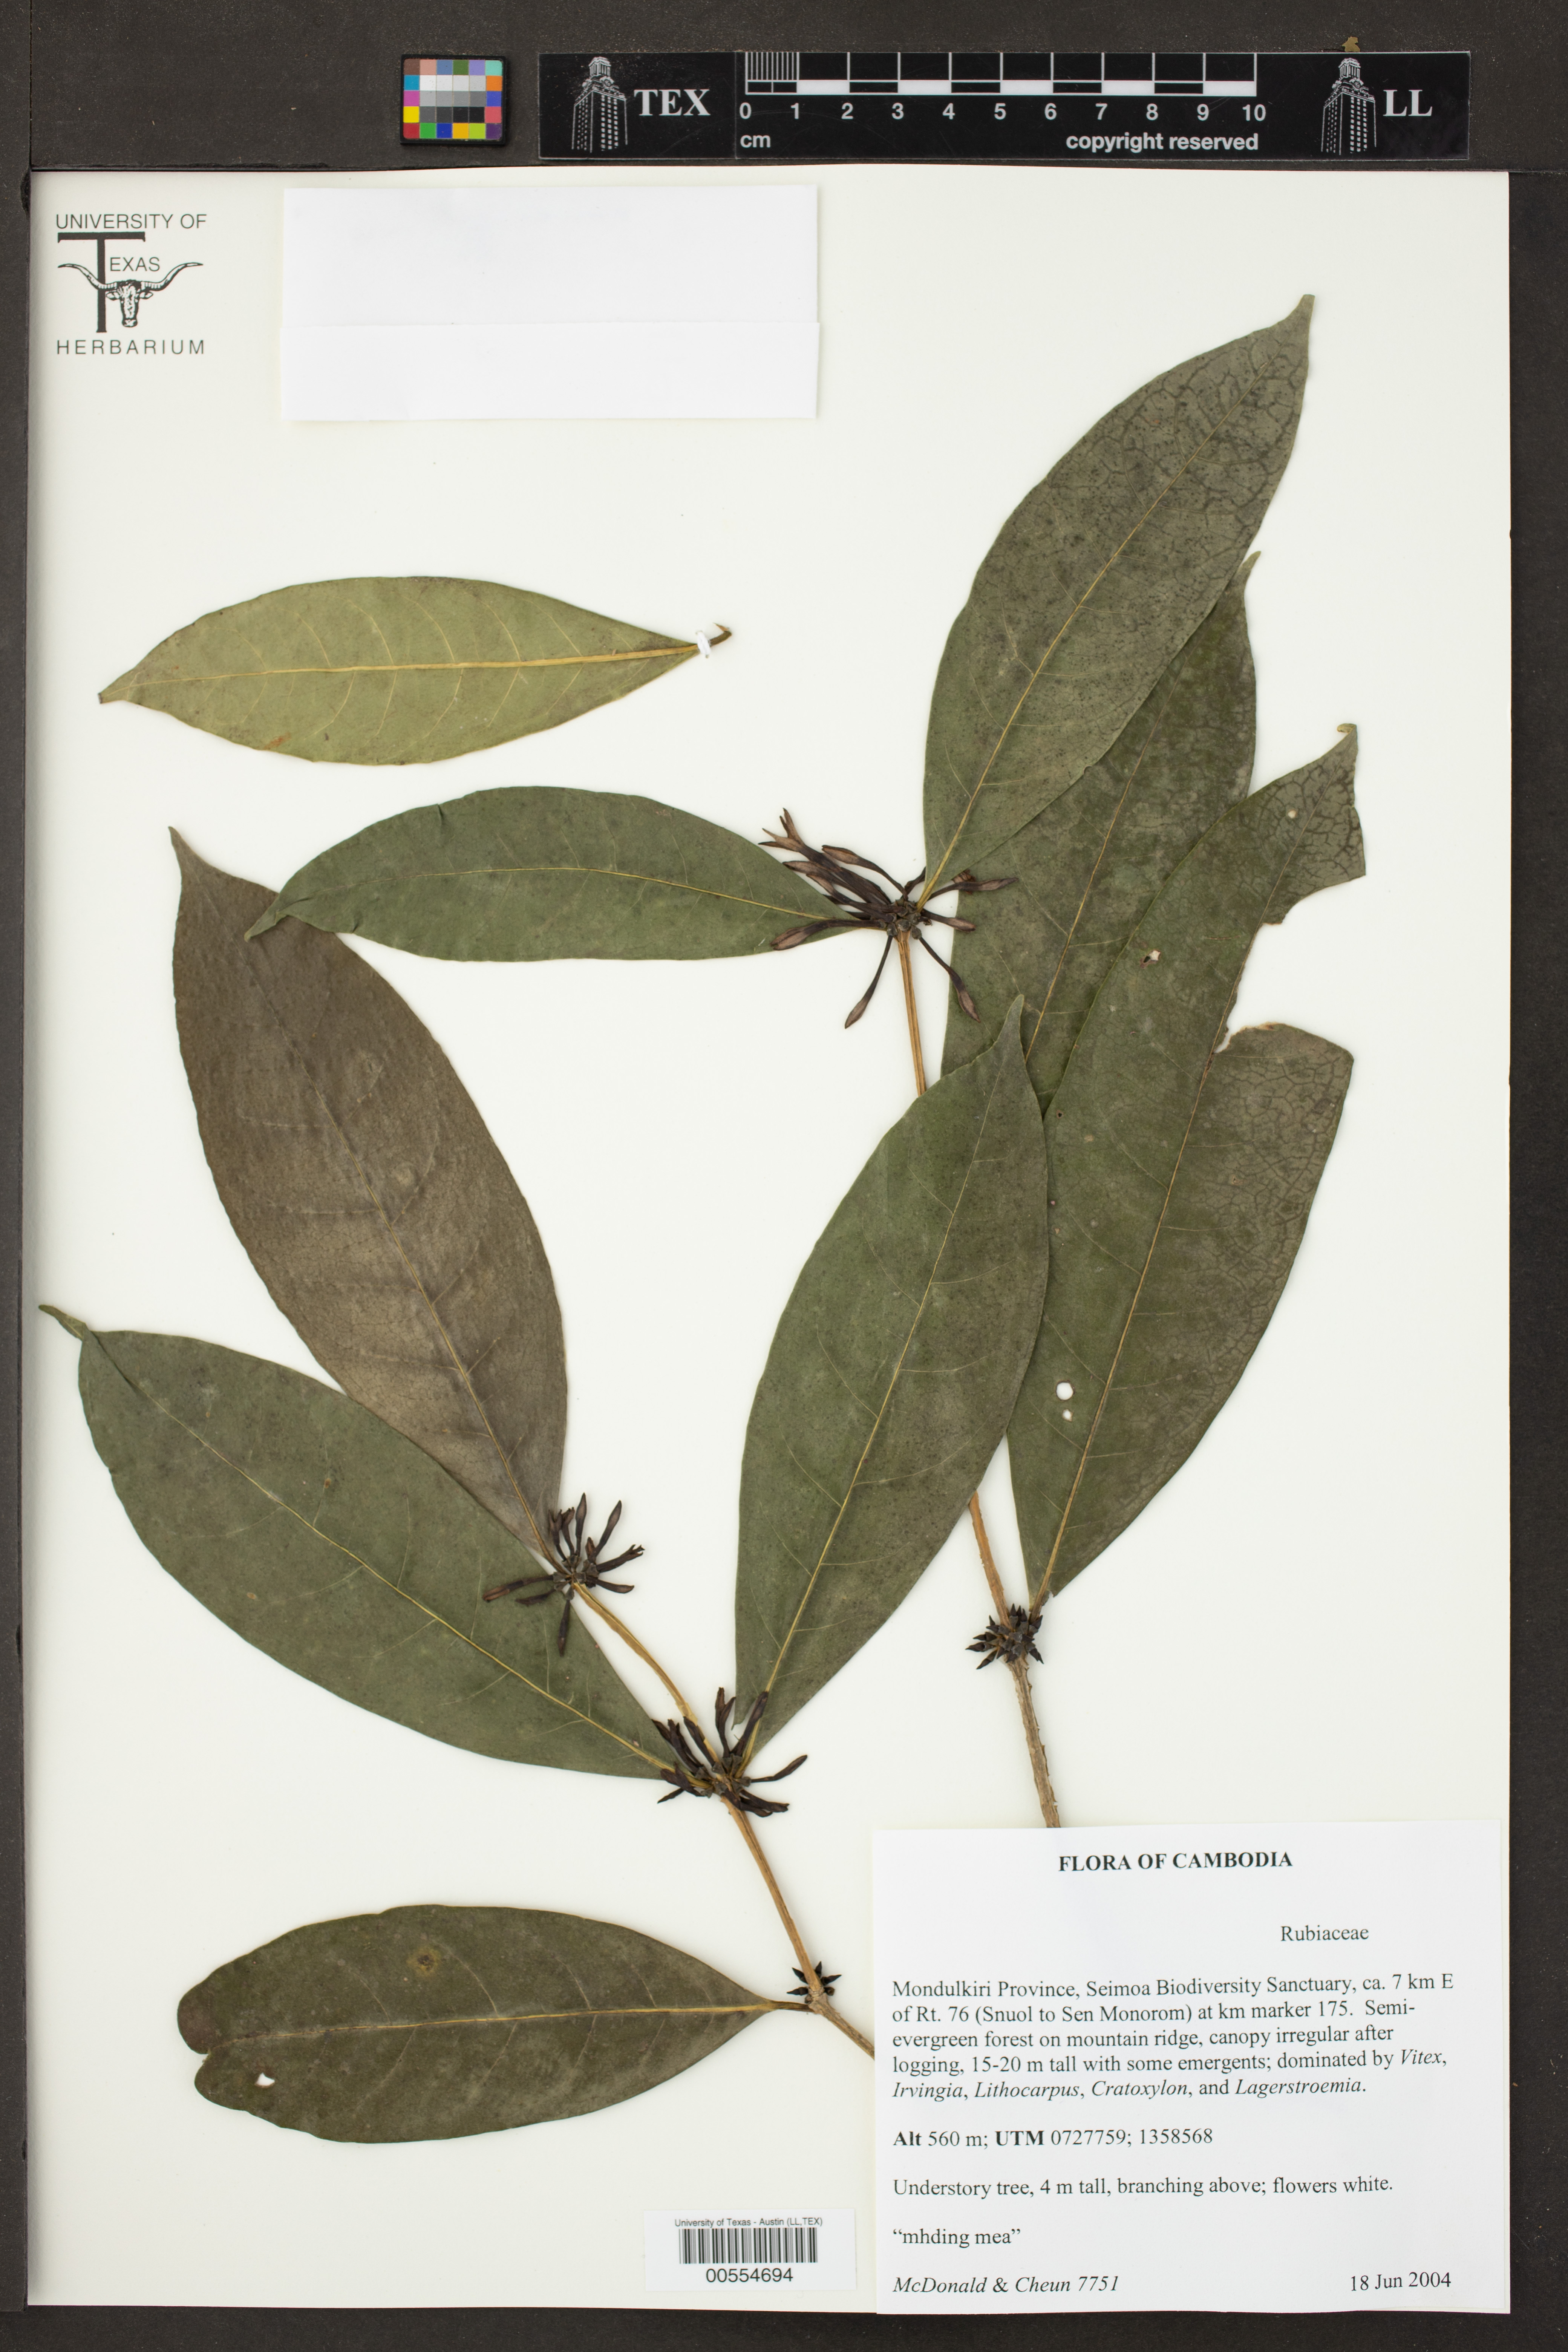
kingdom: Plantae
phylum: Tracheophyta
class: Magnoliopsida
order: Gentianales
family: Rubiaceae
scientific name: Rubiaceae
